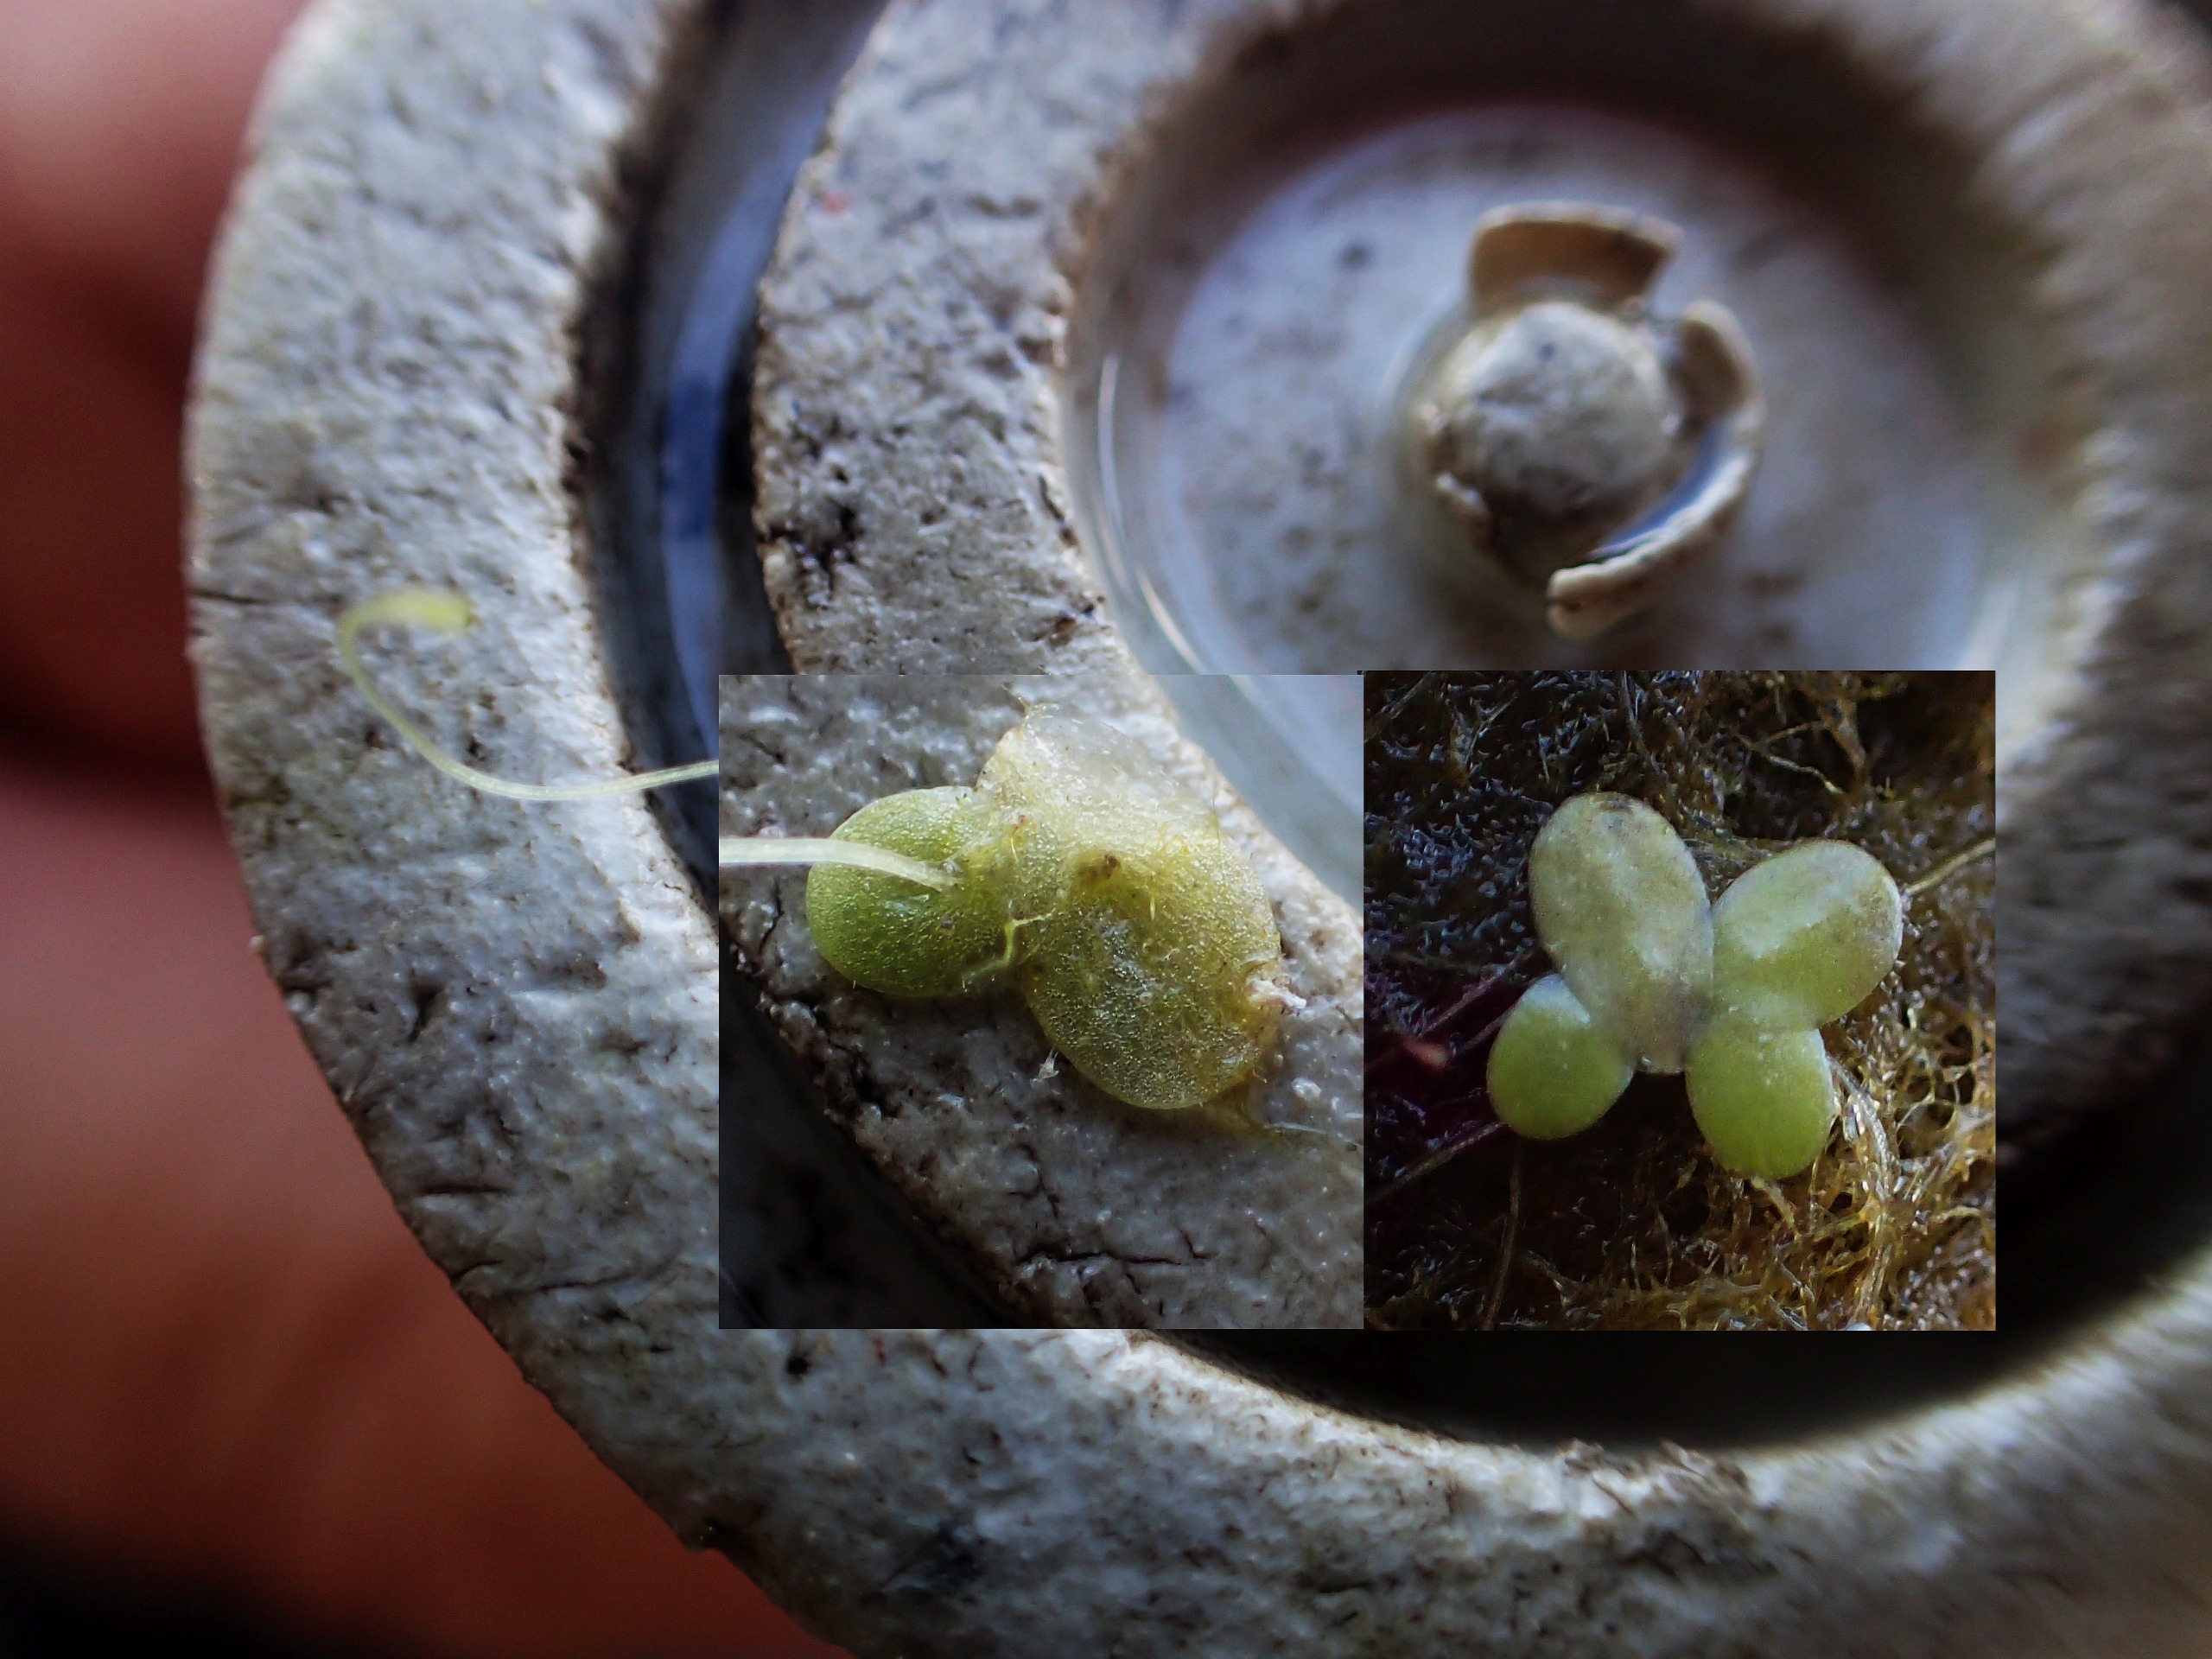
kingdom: Plantae
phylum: Tracheophyta
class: Liliopsida
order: Alismatales
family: Araceae
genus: Lemna
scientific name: Lemna minor
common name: Liden andemad
